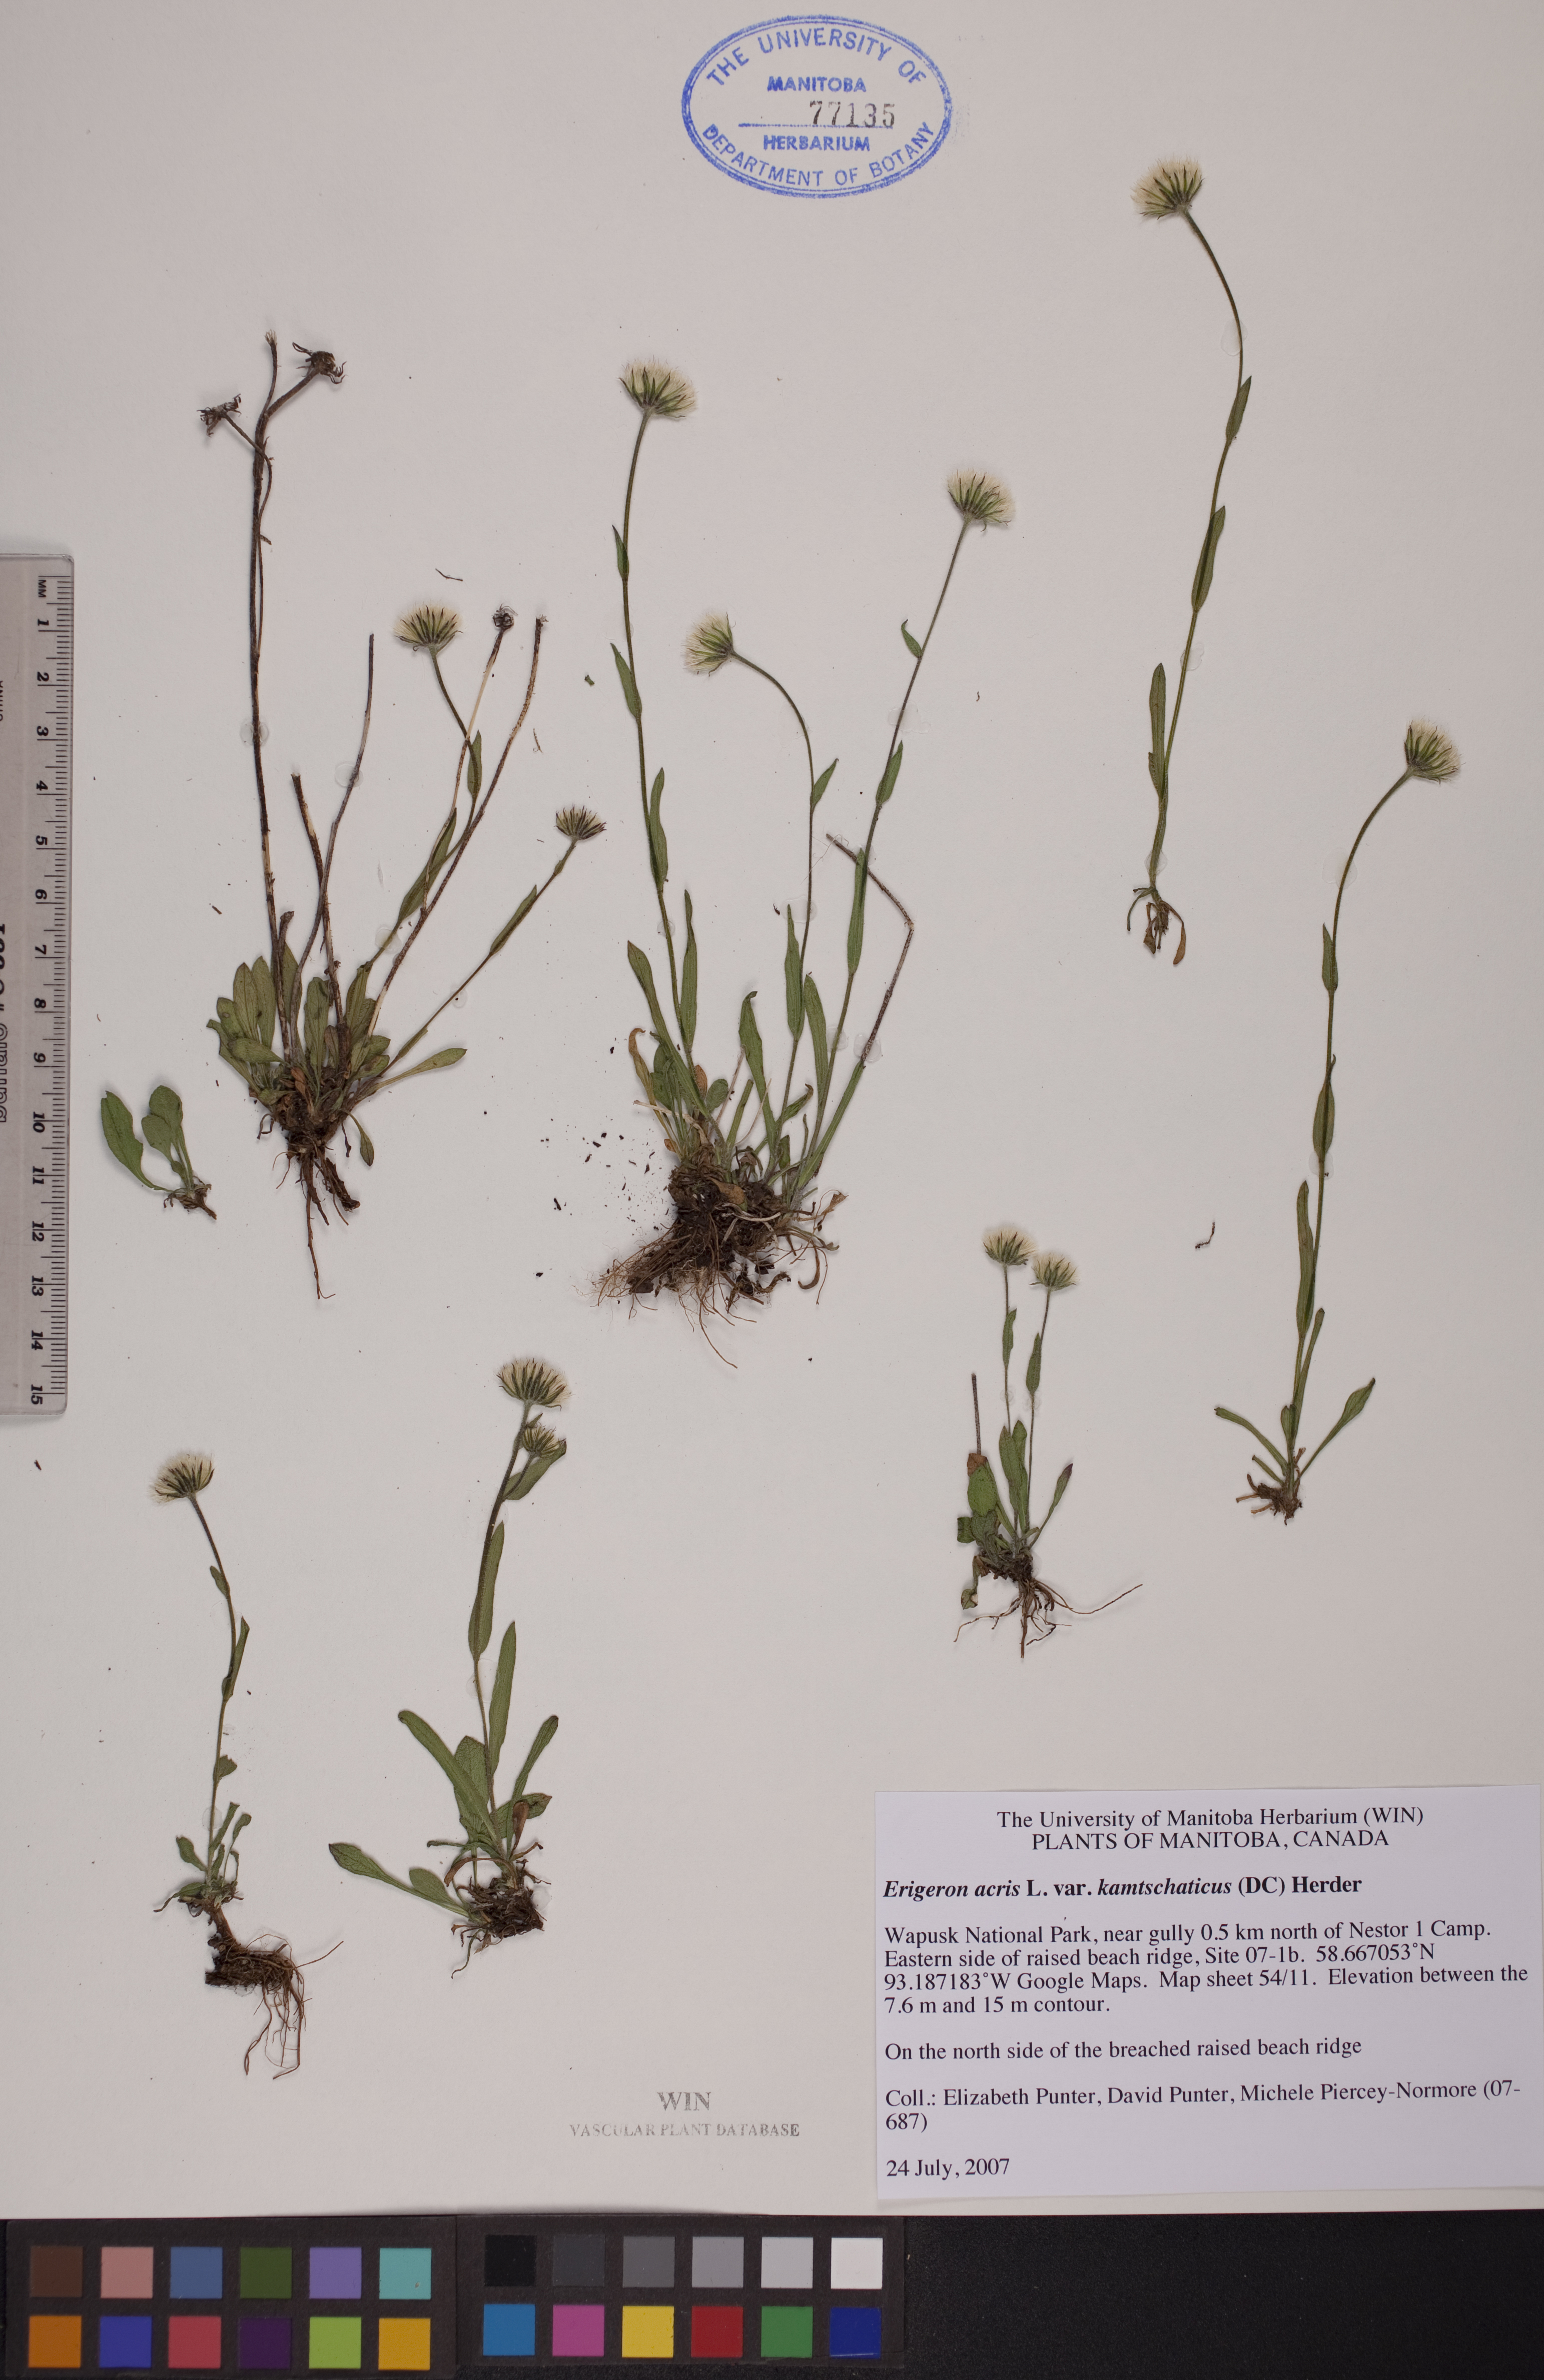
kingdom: Plantae
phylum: Tracheophyta
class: Magnoliopsida
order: Asterales
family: Asteraceae
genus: Erigeron
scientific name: Erigeron kamtschaticus
